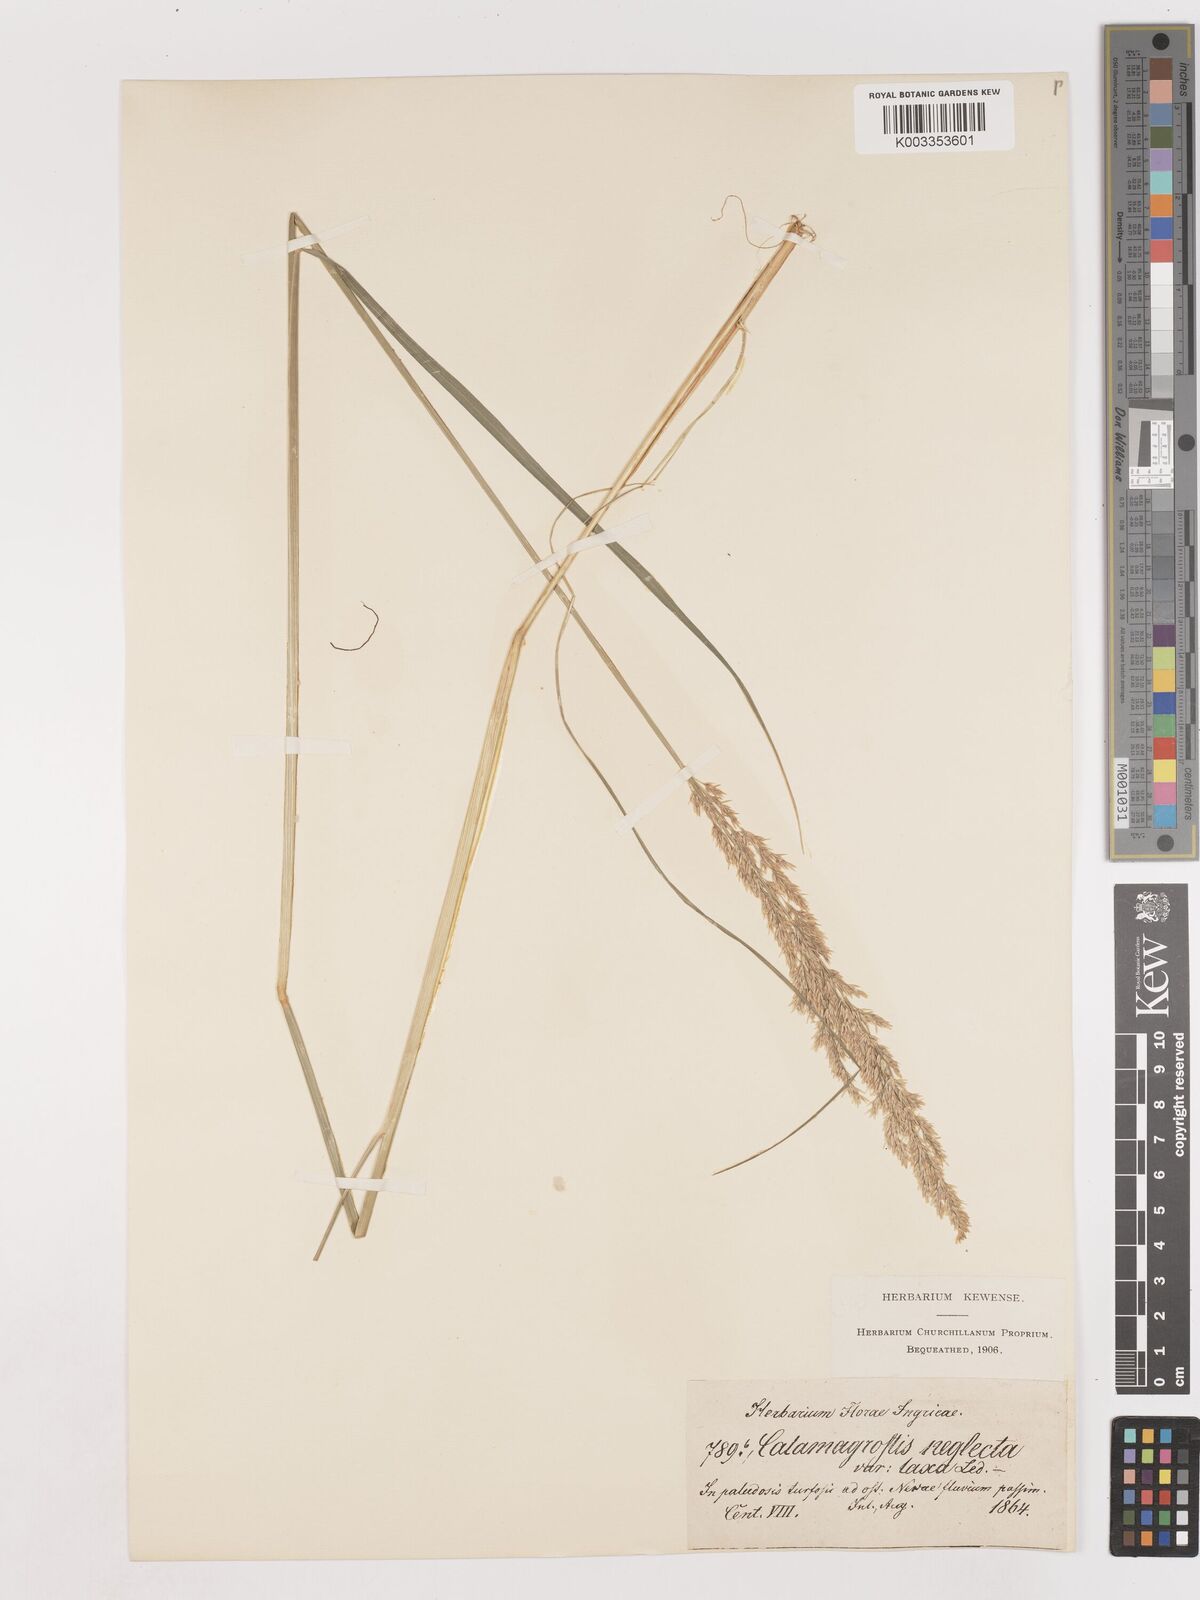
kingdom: Plantae
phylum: Tracheophyta
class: Liliopsida
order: Poales
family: Poaceae
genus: Cinnagrostis
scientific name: Cinnagrostis recta
